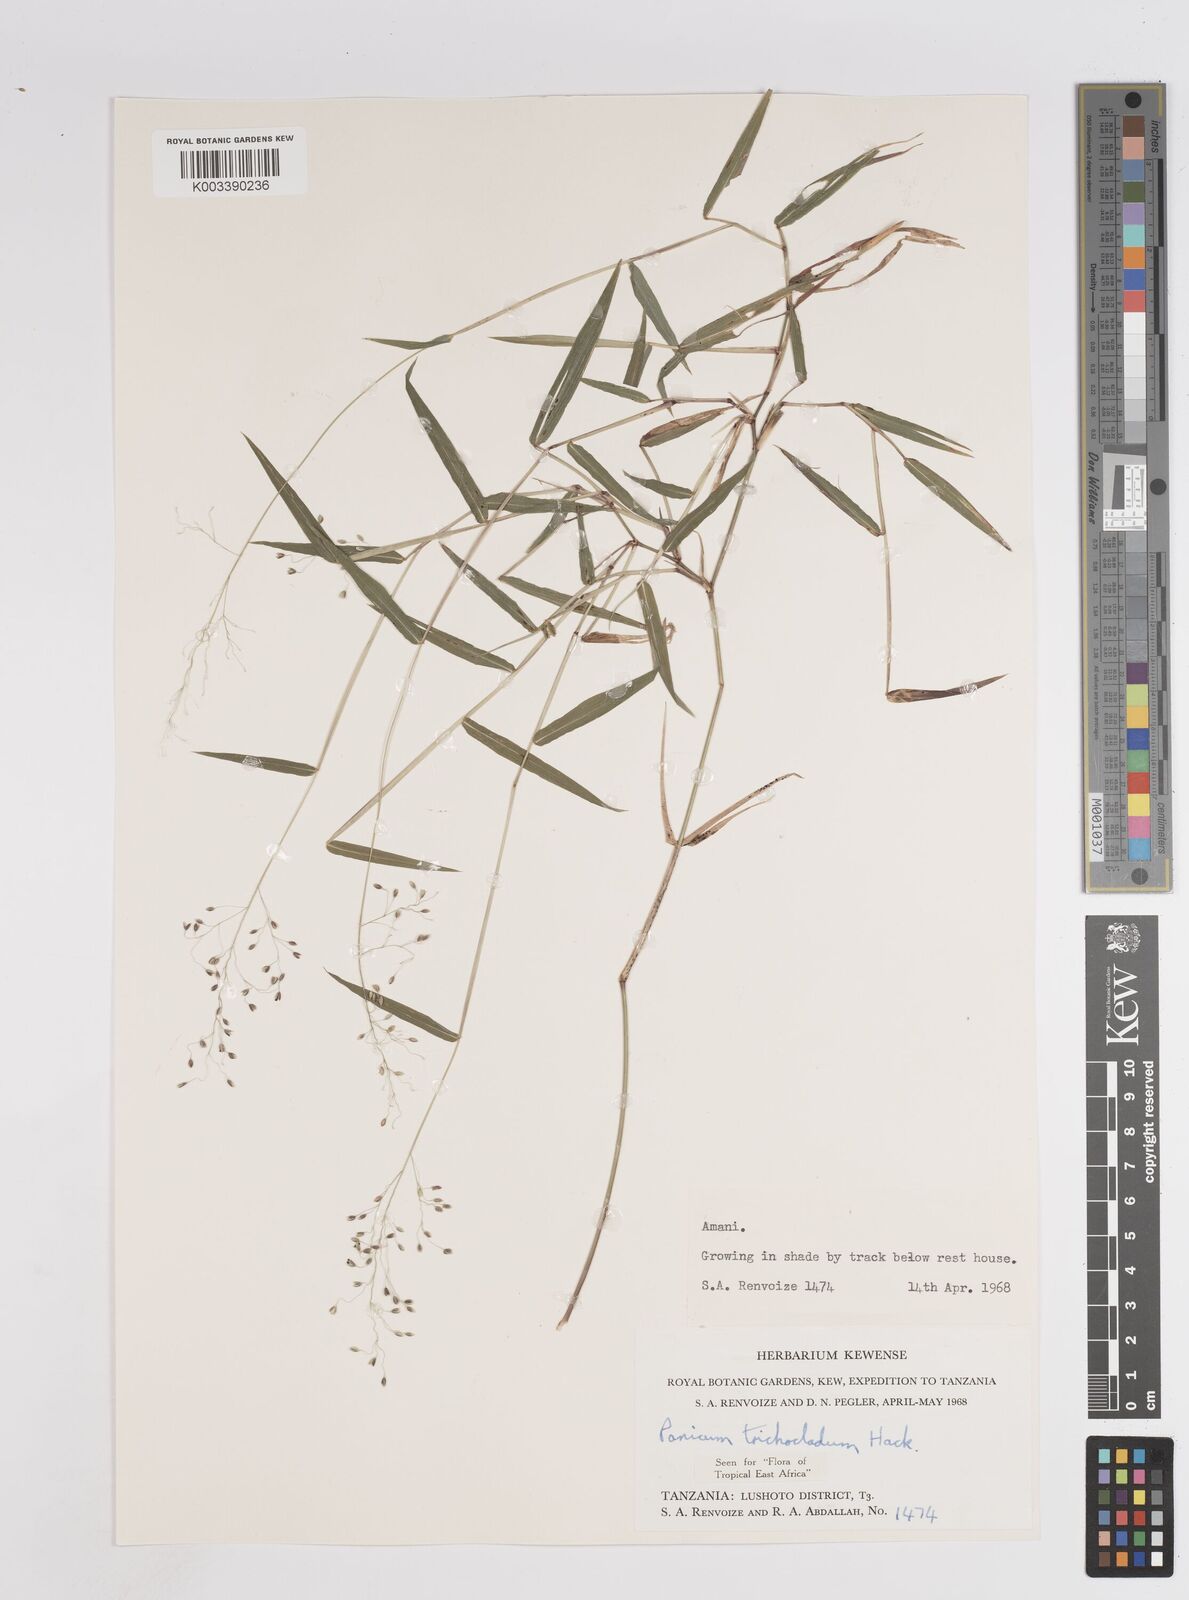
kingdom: Plantae
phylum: Tracheophyta
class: Liliopsida
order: Poales
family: Poaceae
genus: Panicum
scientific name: Panicum trichocladum
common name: Donkey grass
